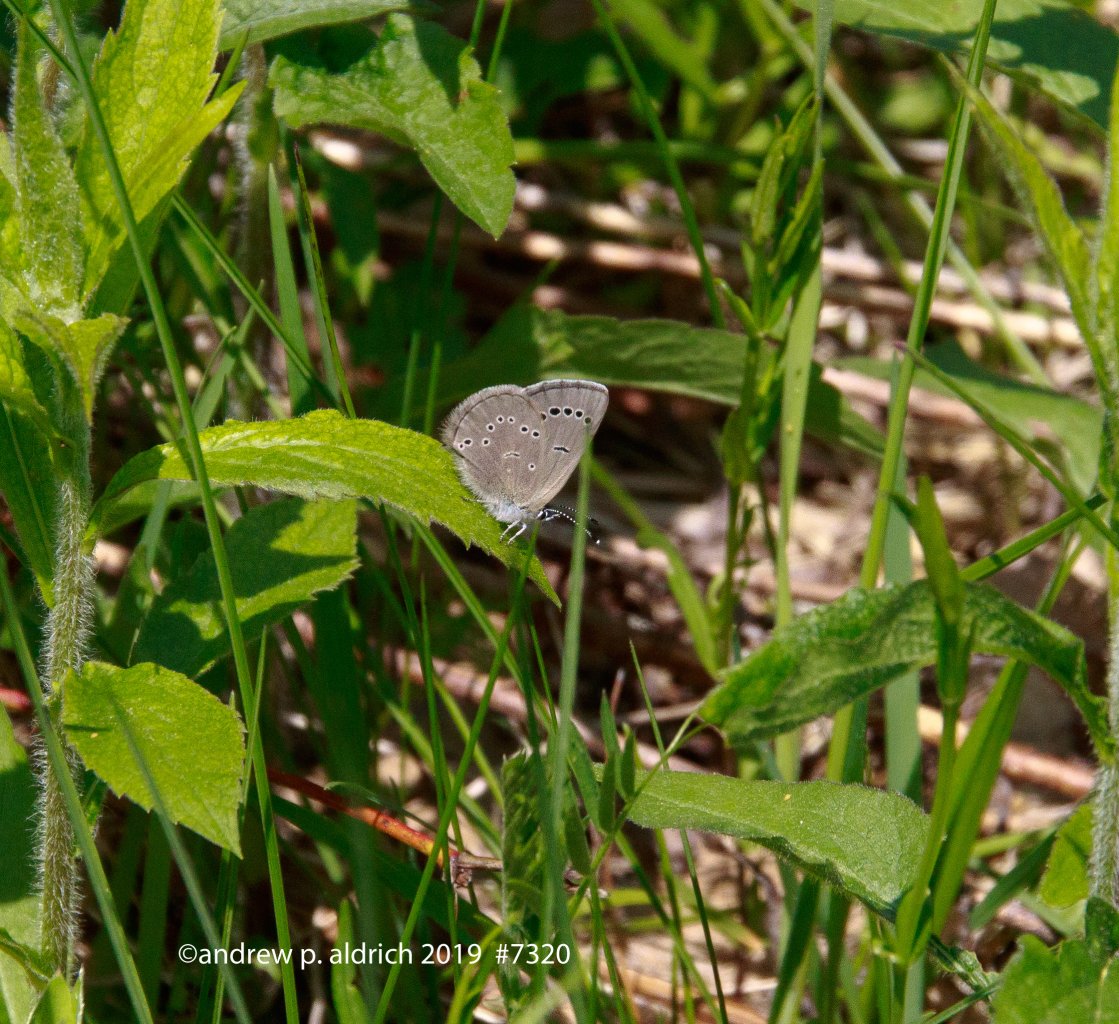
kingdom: Animalia
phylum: Arthropoda
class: Insecta
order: Lepidoptera
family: Lycaenidae
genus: Glaucopsyche
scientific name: Glaucopsyche lygdamus
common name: Silvery Blue
